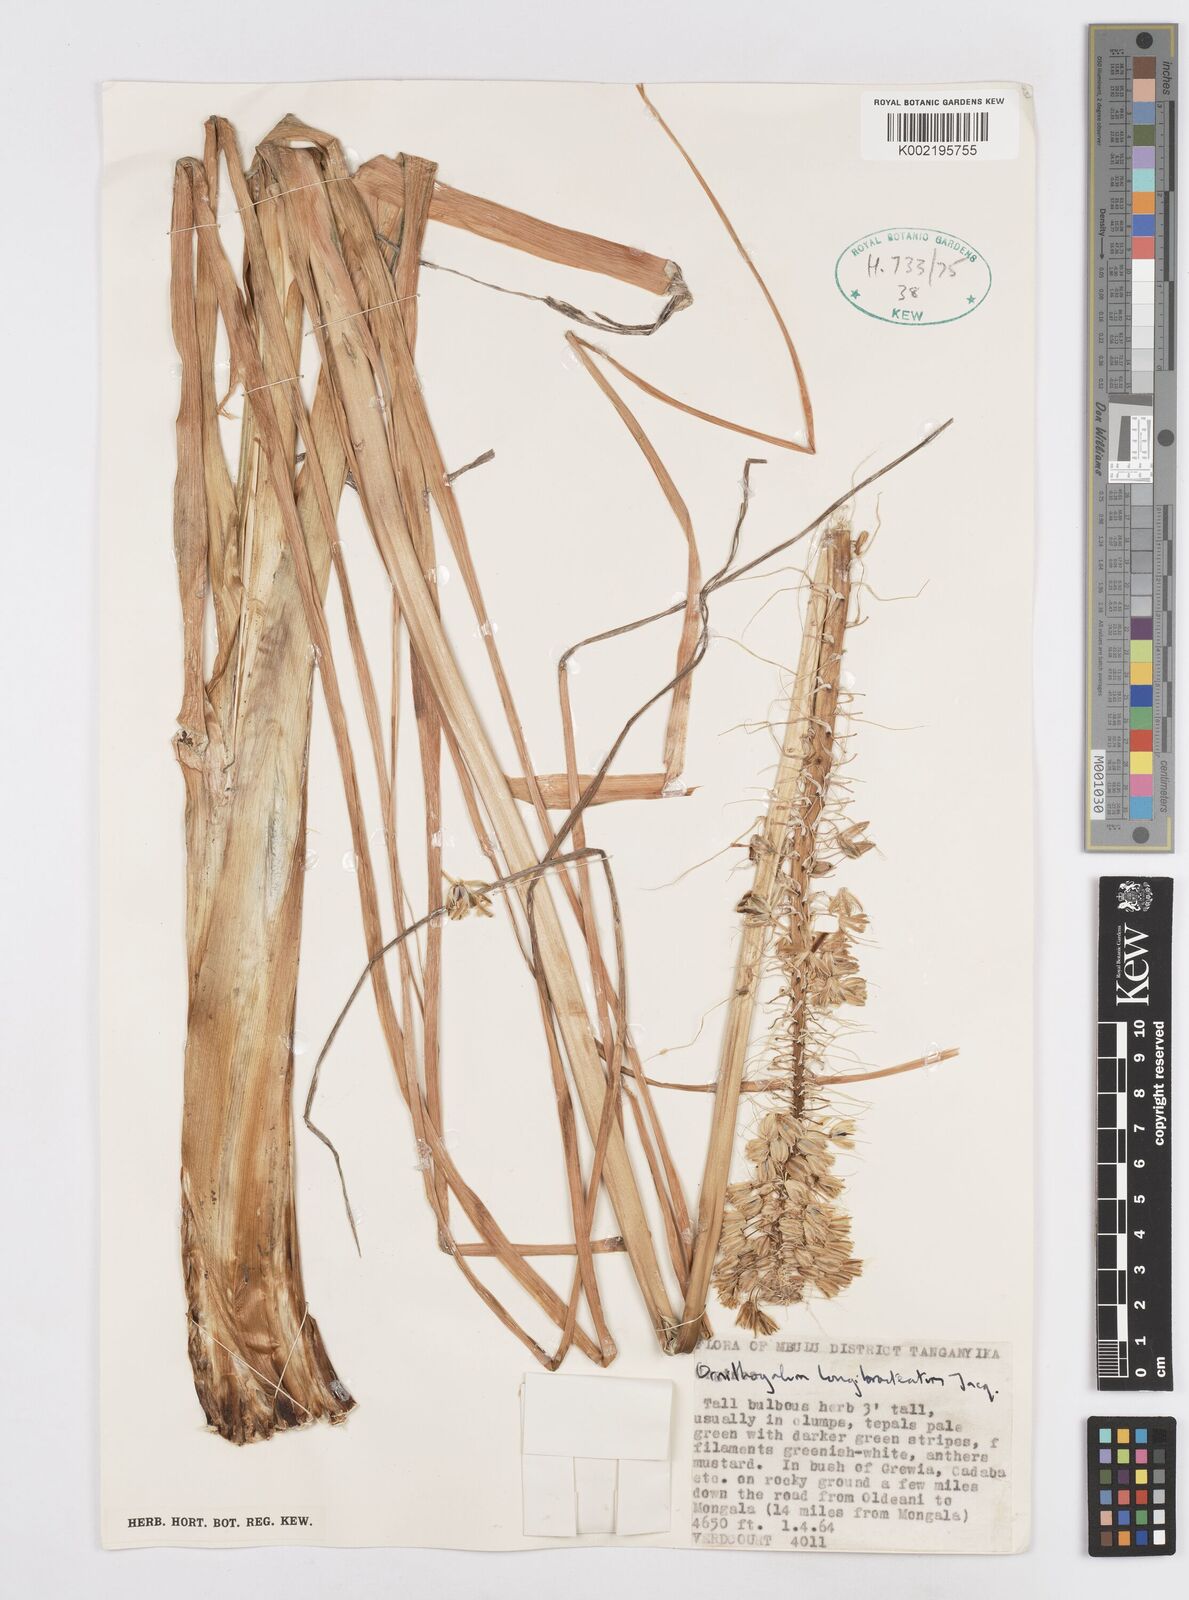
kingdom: Plantae
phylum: Tracheophyta
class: Liliopsida
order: Asparagales
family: Asparagaceae
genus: Ornithogalum
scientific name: Ornithogalum
